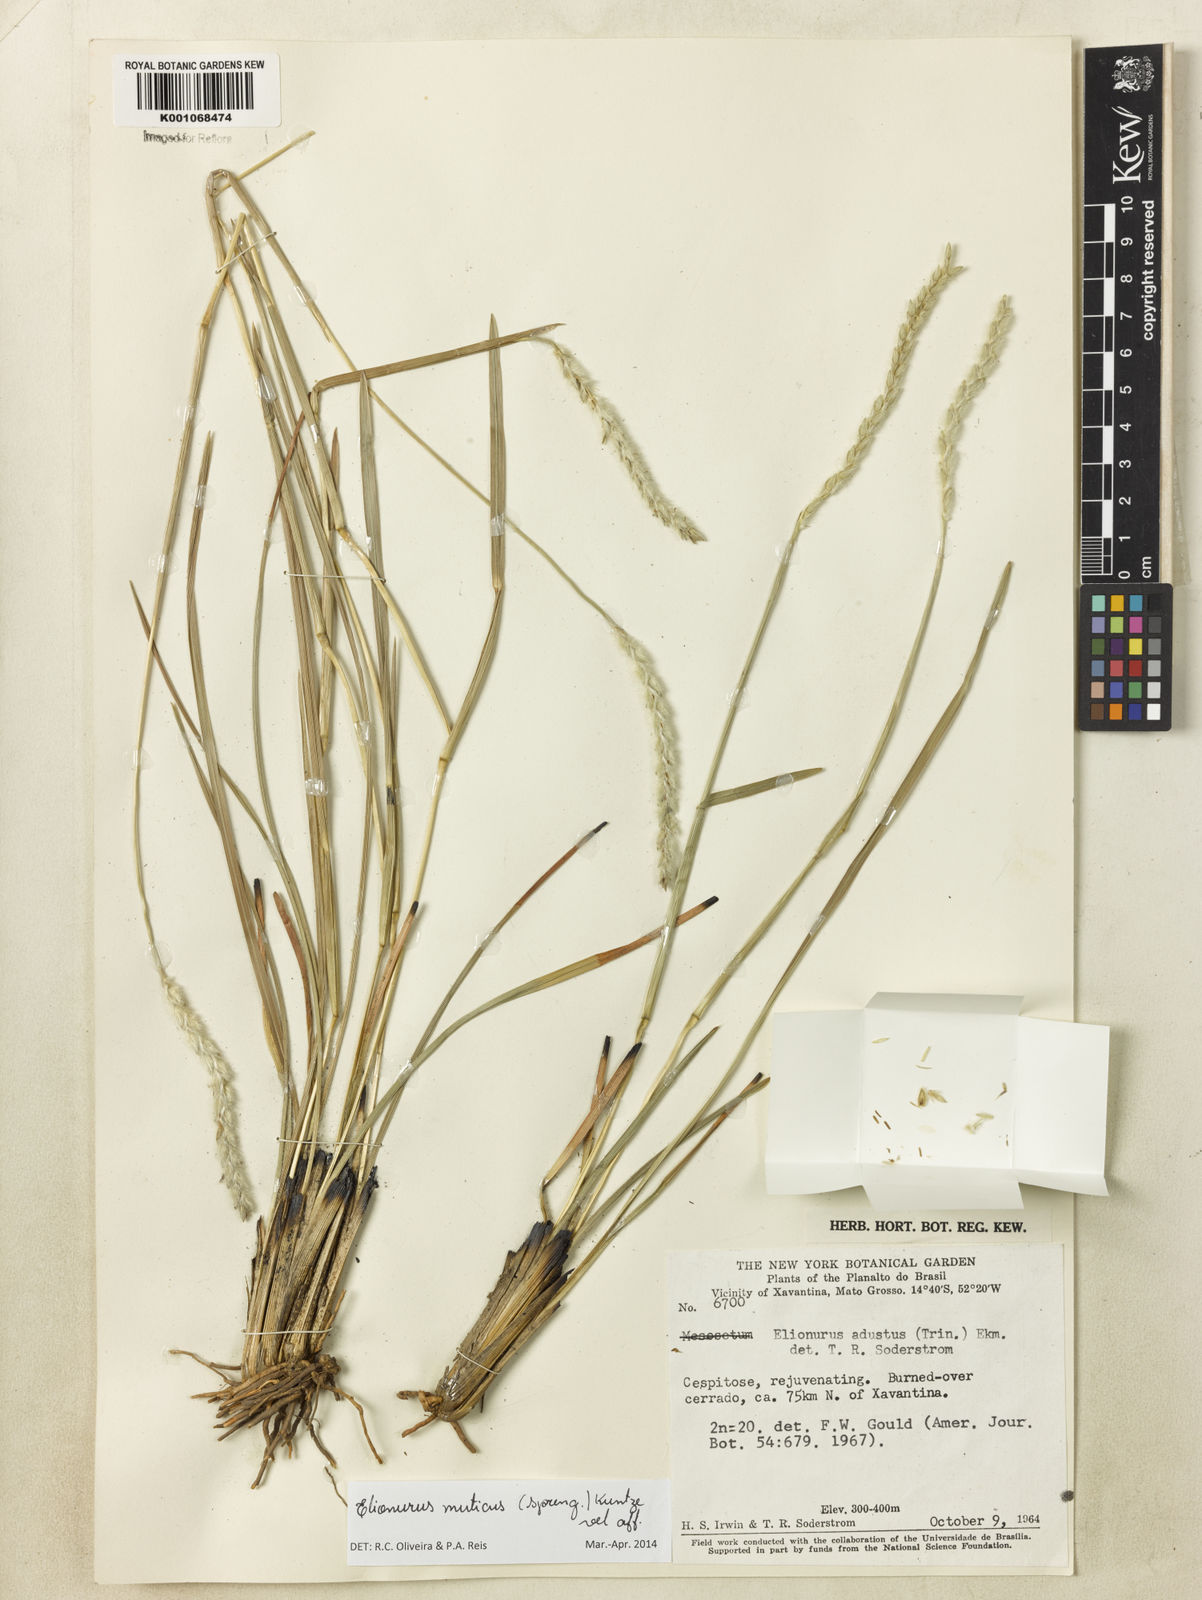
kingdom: Plantae
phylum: Tracheophyta
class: Liliopsida
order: Poales
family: Poaceae
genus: Elionurus
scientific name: Elionurus muticus
